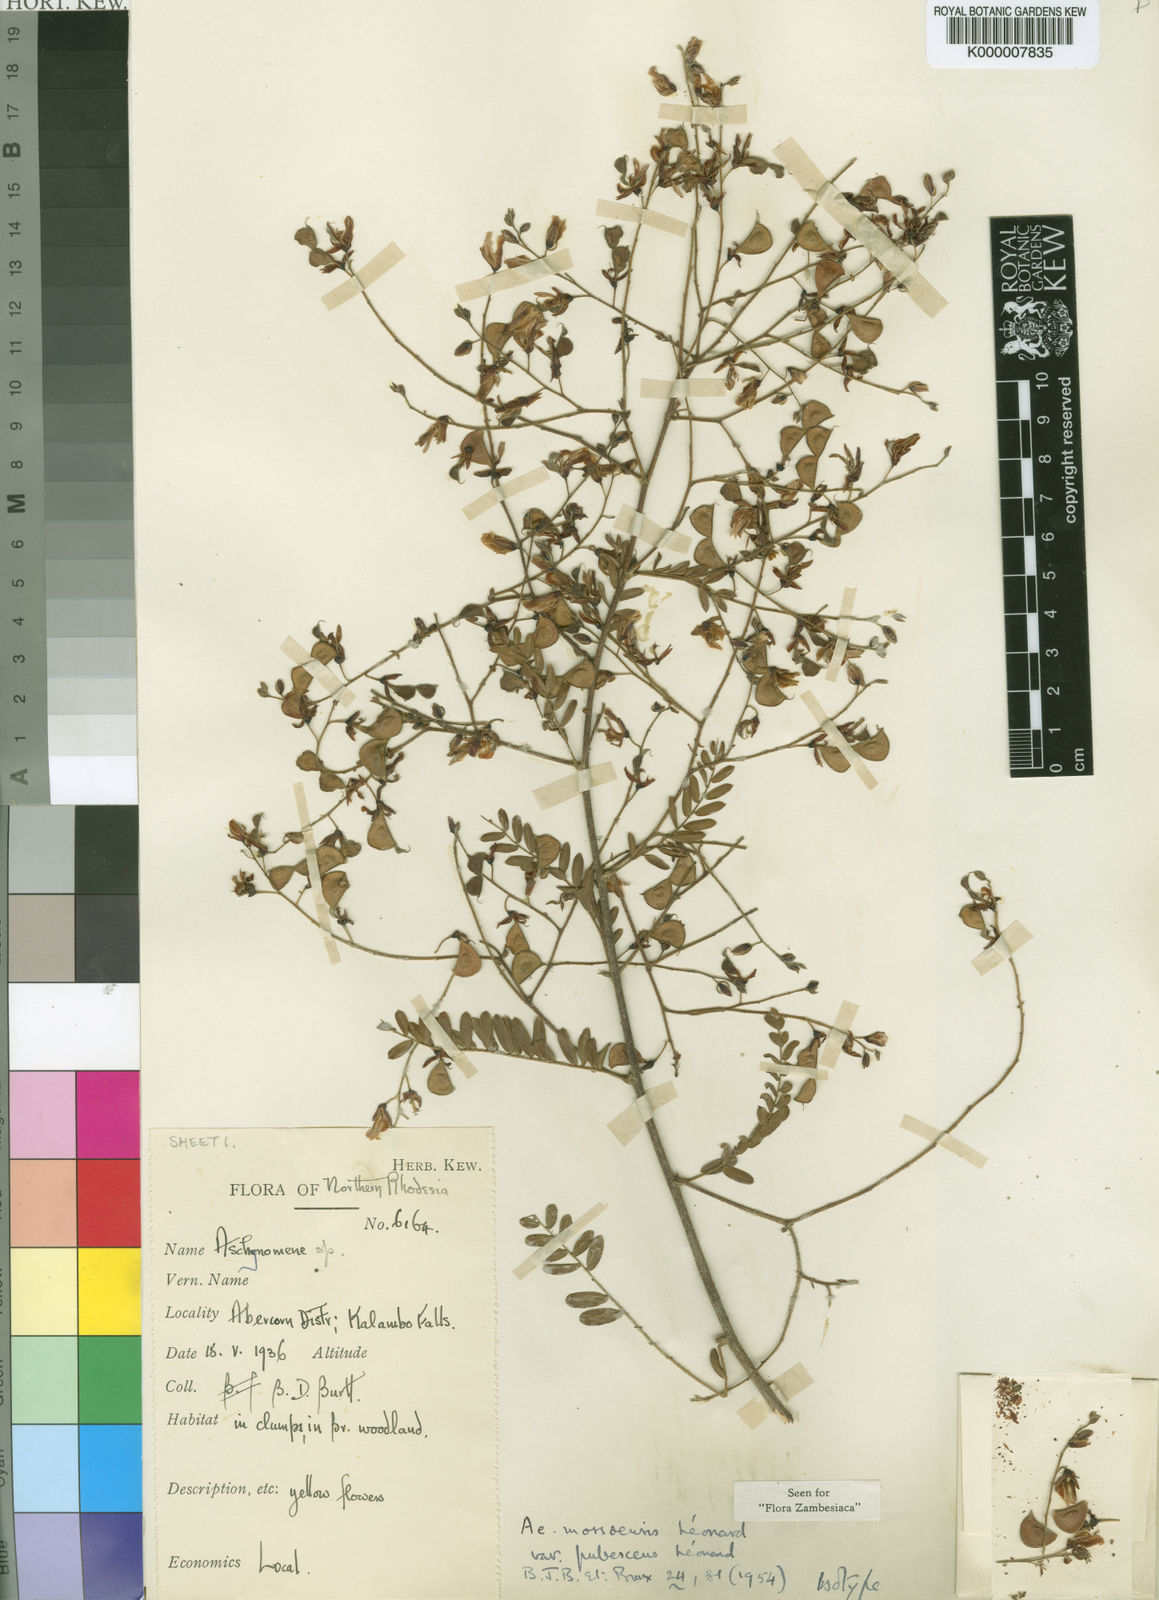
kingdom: Plantae
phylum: Tracheophyta
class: Magnoliopsida
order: Fabales
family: Fabaceae
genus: Aeschynomene
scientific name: Aeschynomene mossoensis
